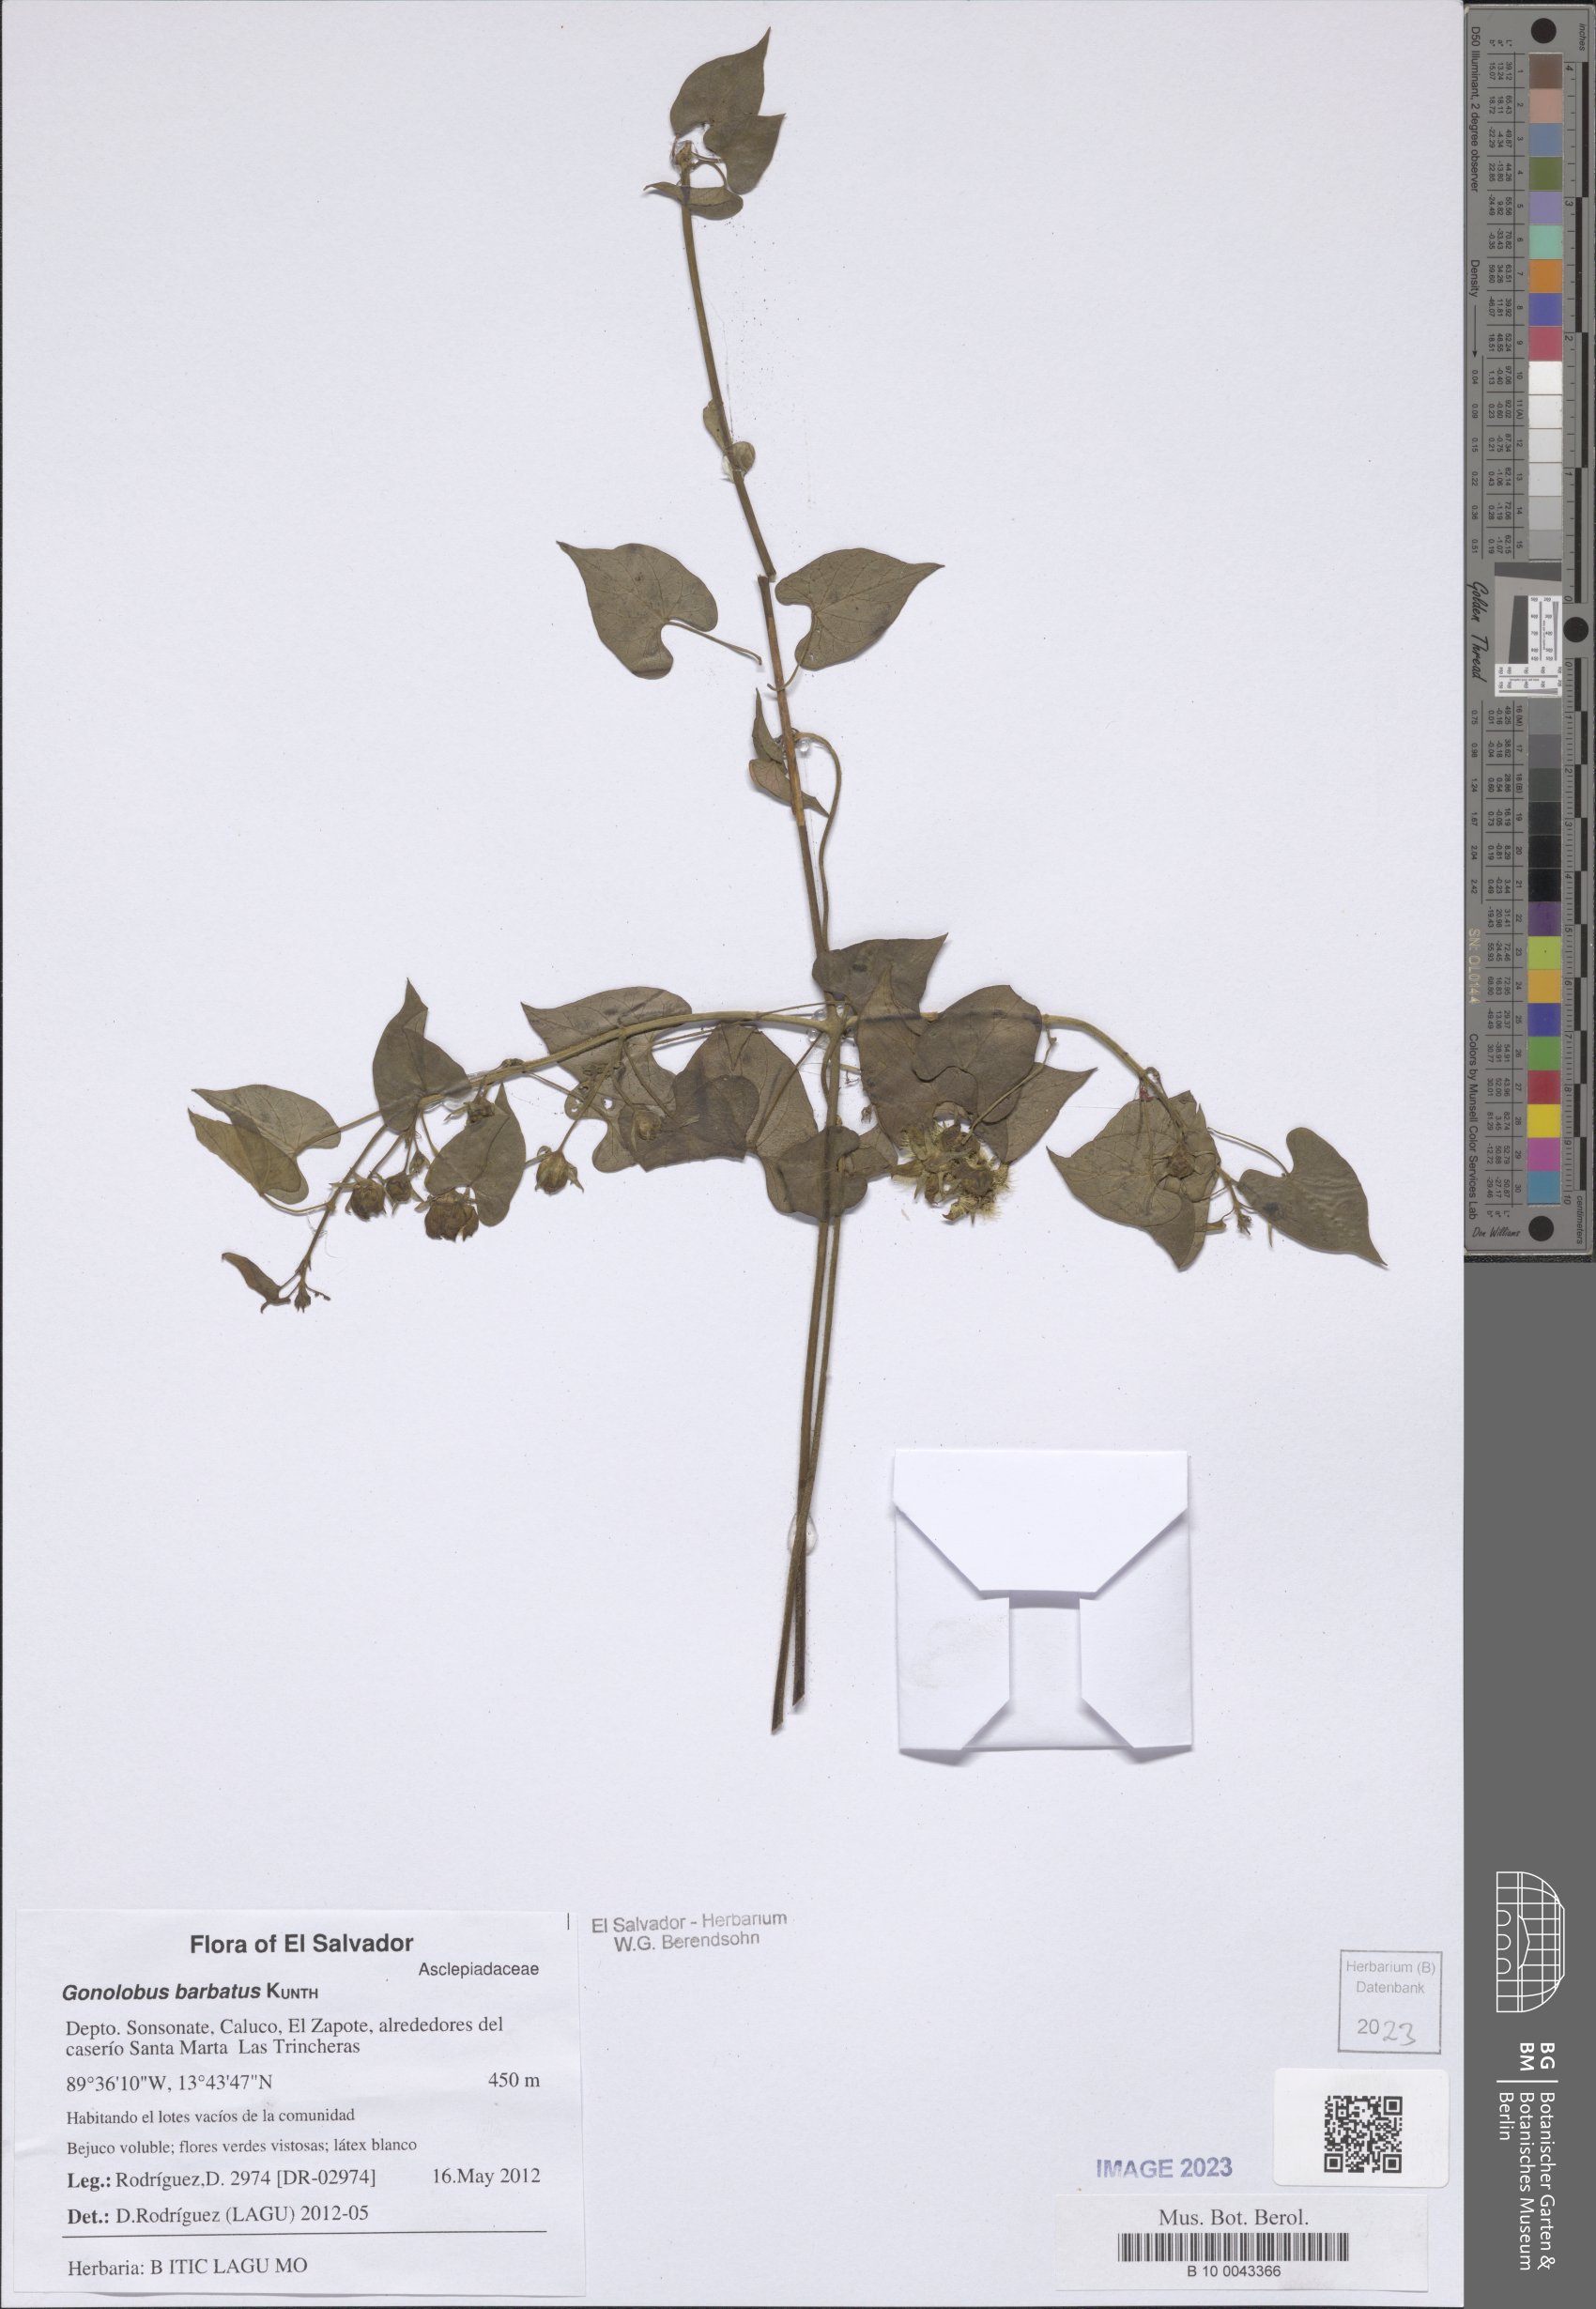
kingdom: Plantae
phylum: Tracheophyta
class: Magnoliopsida
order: Gentianales
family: Apocynaceae
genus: Gonolobus
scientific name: Gonolobus barbatus
